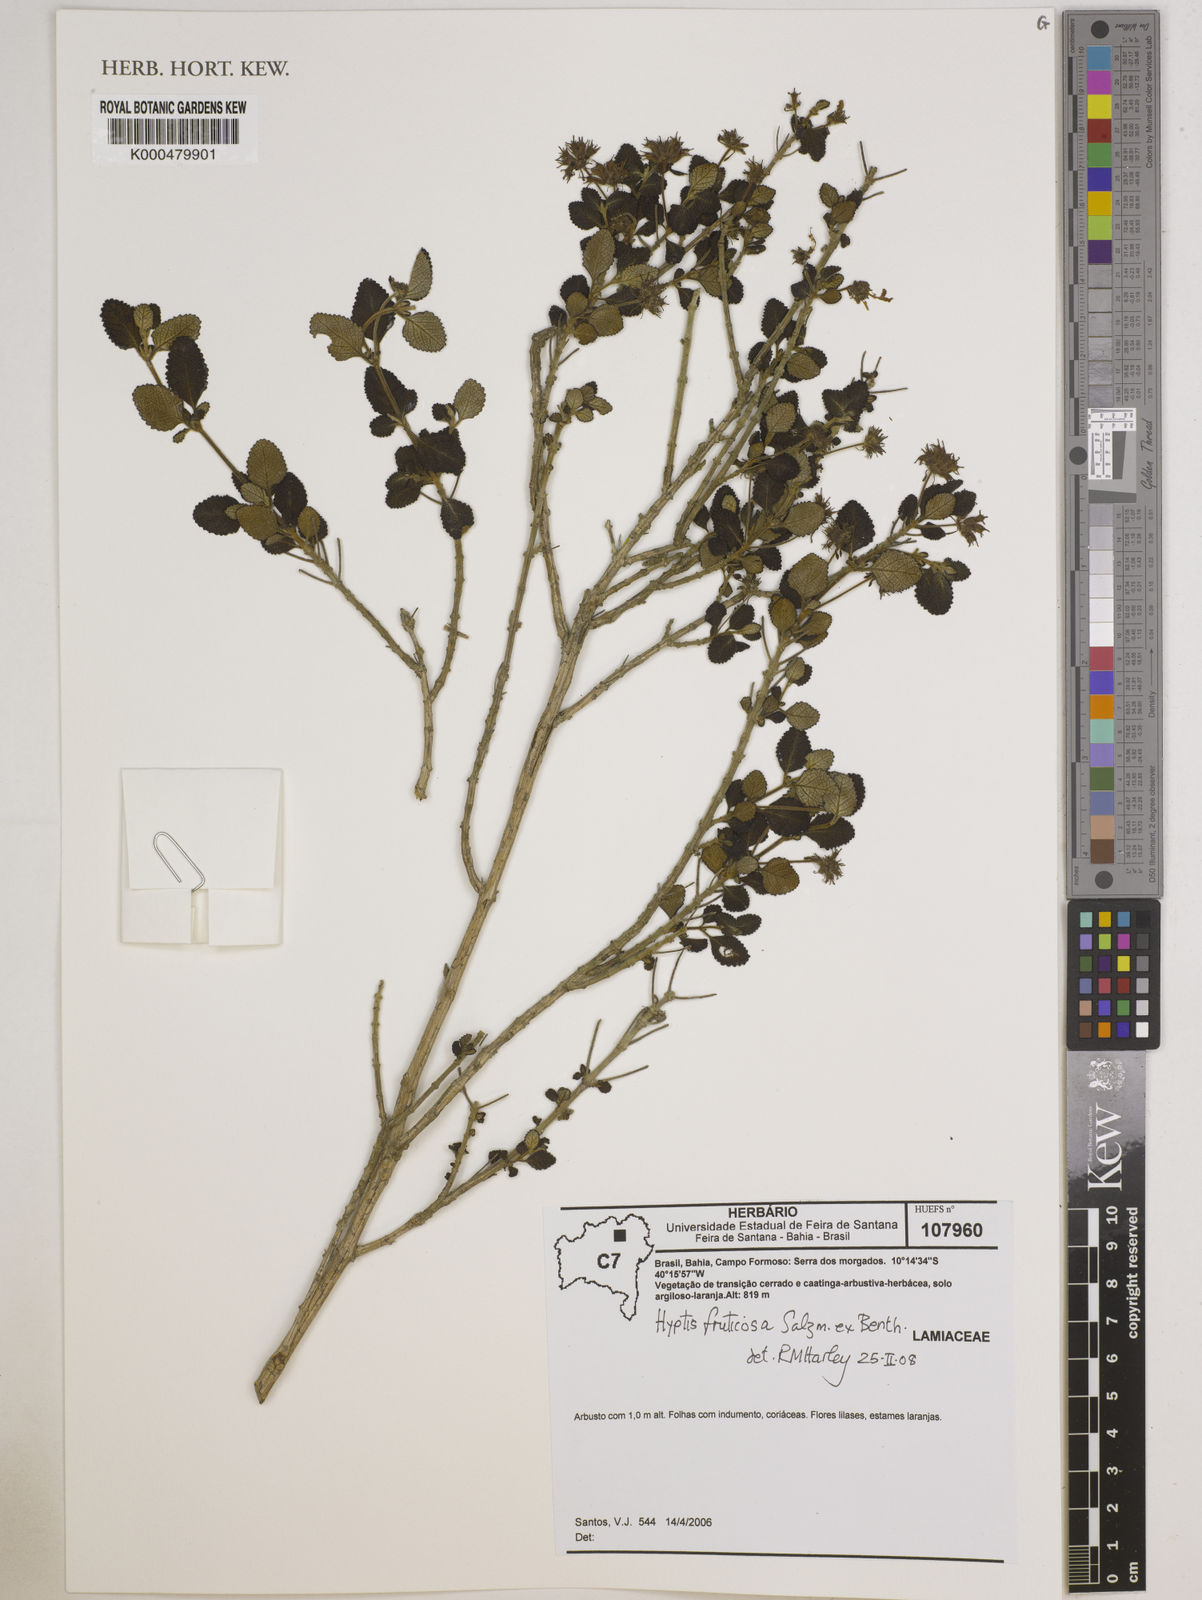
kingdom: Plantae
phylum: Tracheophyta
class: Magnoliopsida
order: Lamiales
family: Lamiaceae
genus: Eplingiella
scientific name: Eplingiella fruticosa
